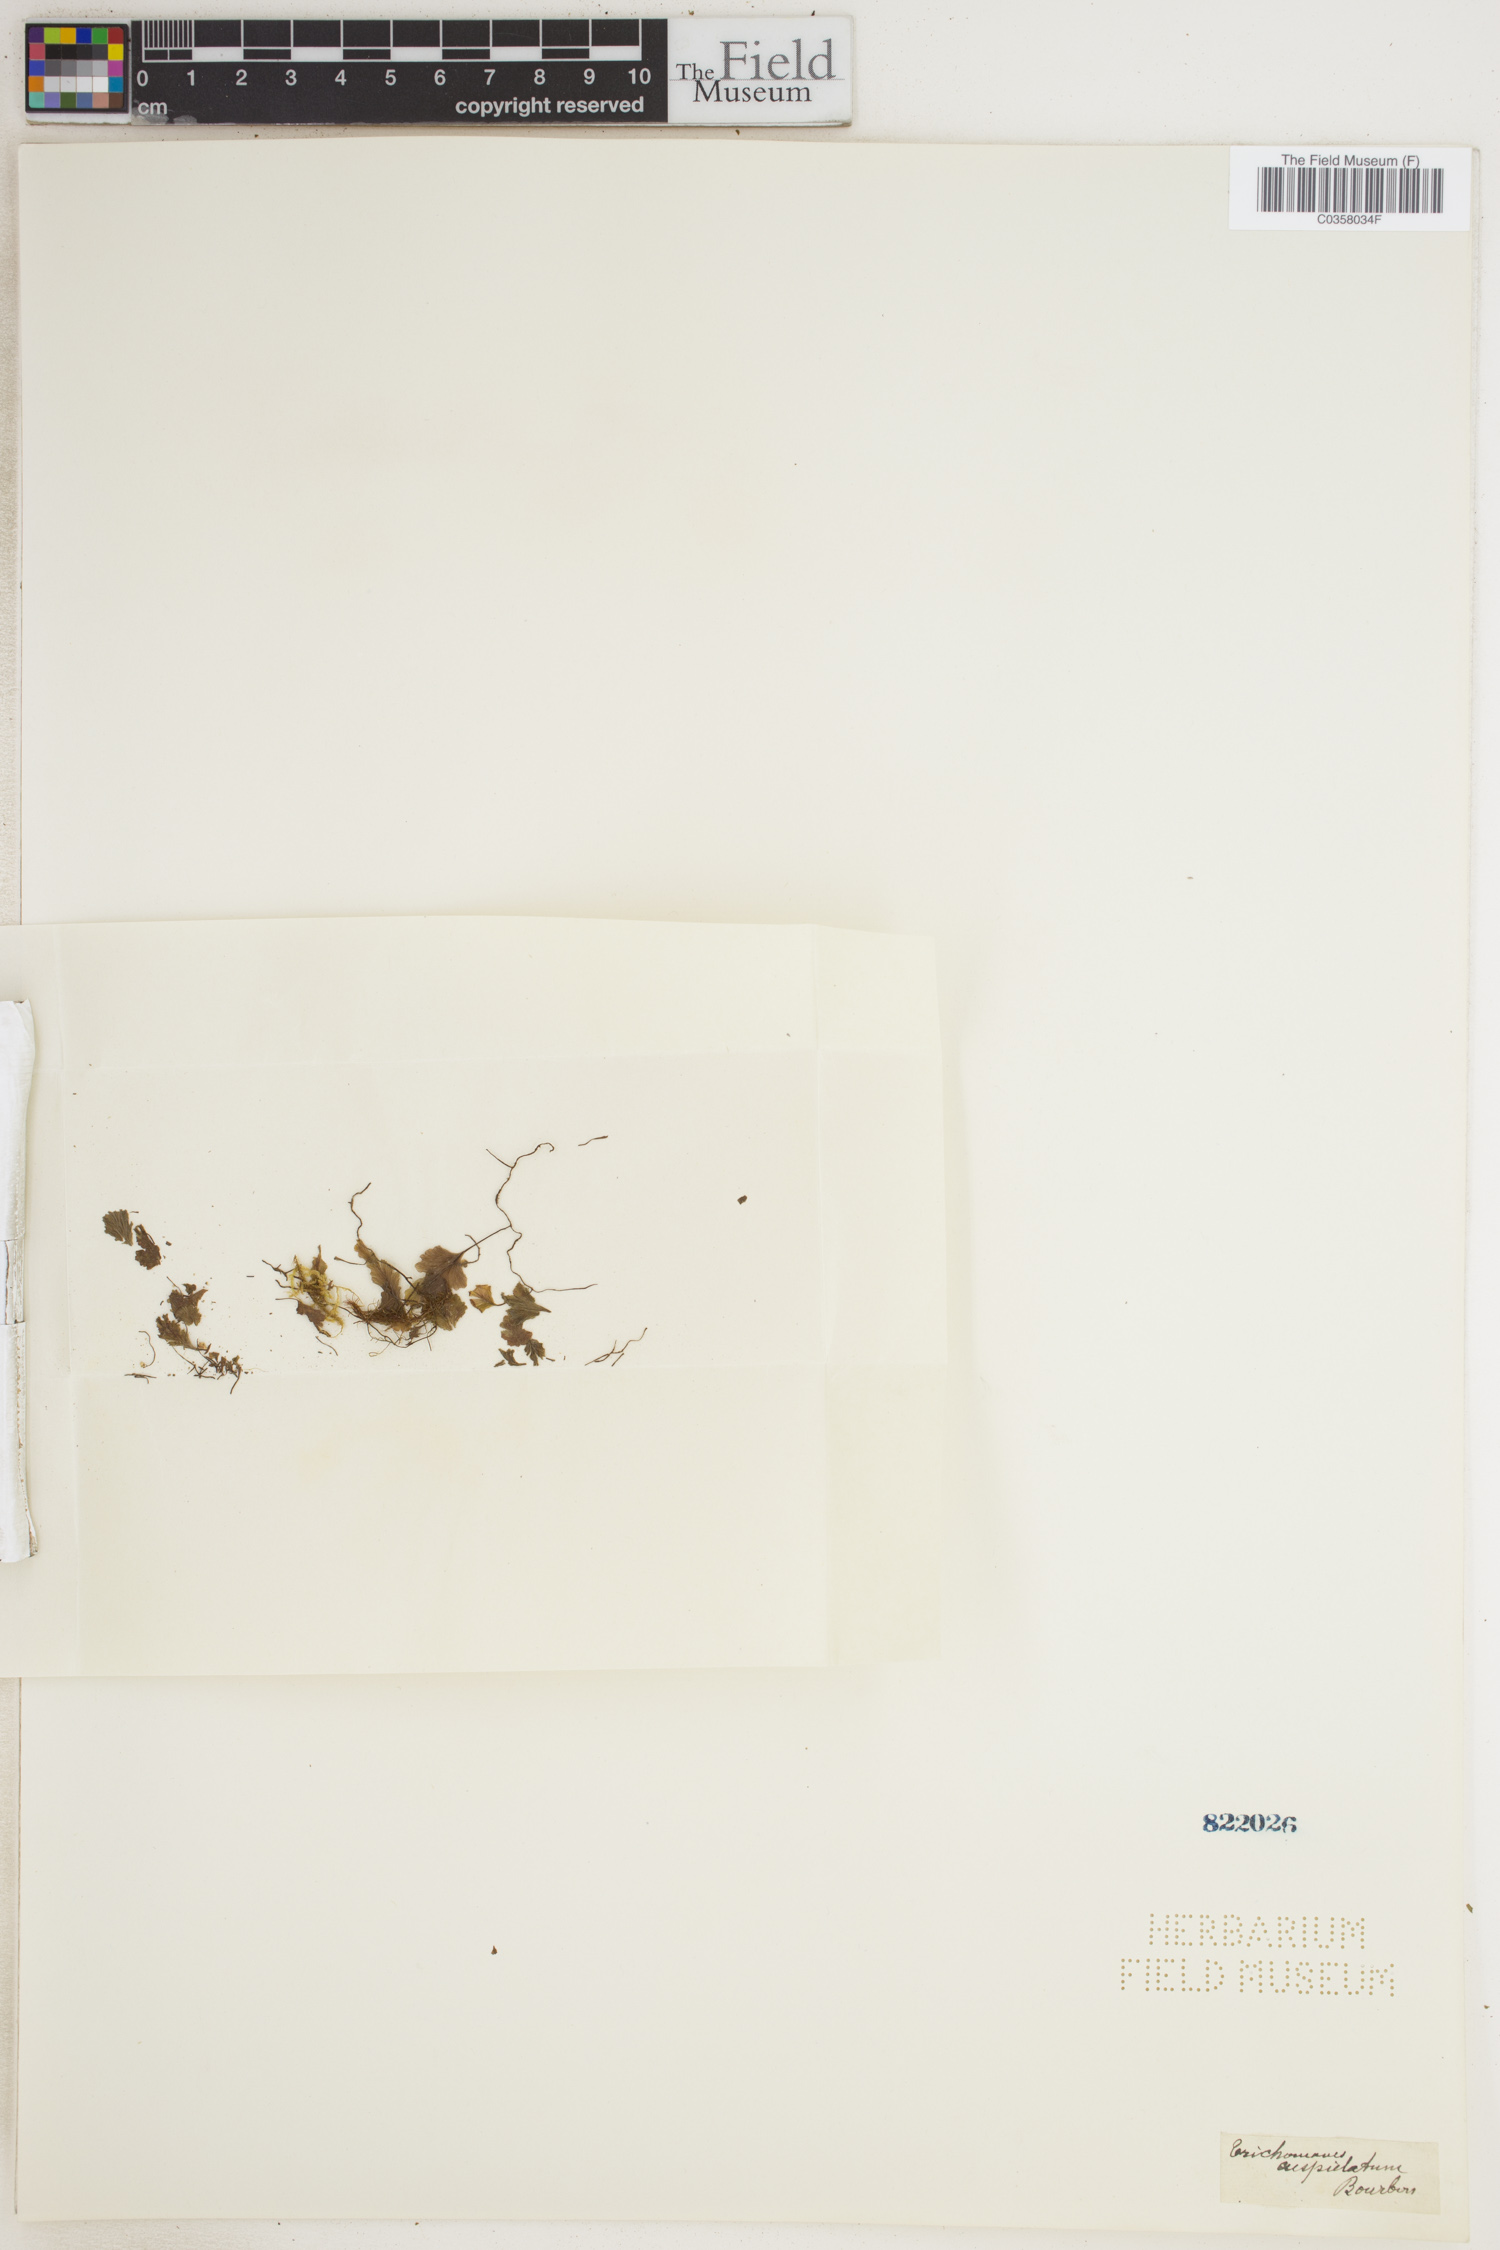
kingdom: Plantae
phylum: Tracheophyta
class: Polypodiopsida
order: Hymenophyllales
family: Hymenophyllaceae
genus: Didymoglossum
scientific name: Didymoglossum cuspidatum
